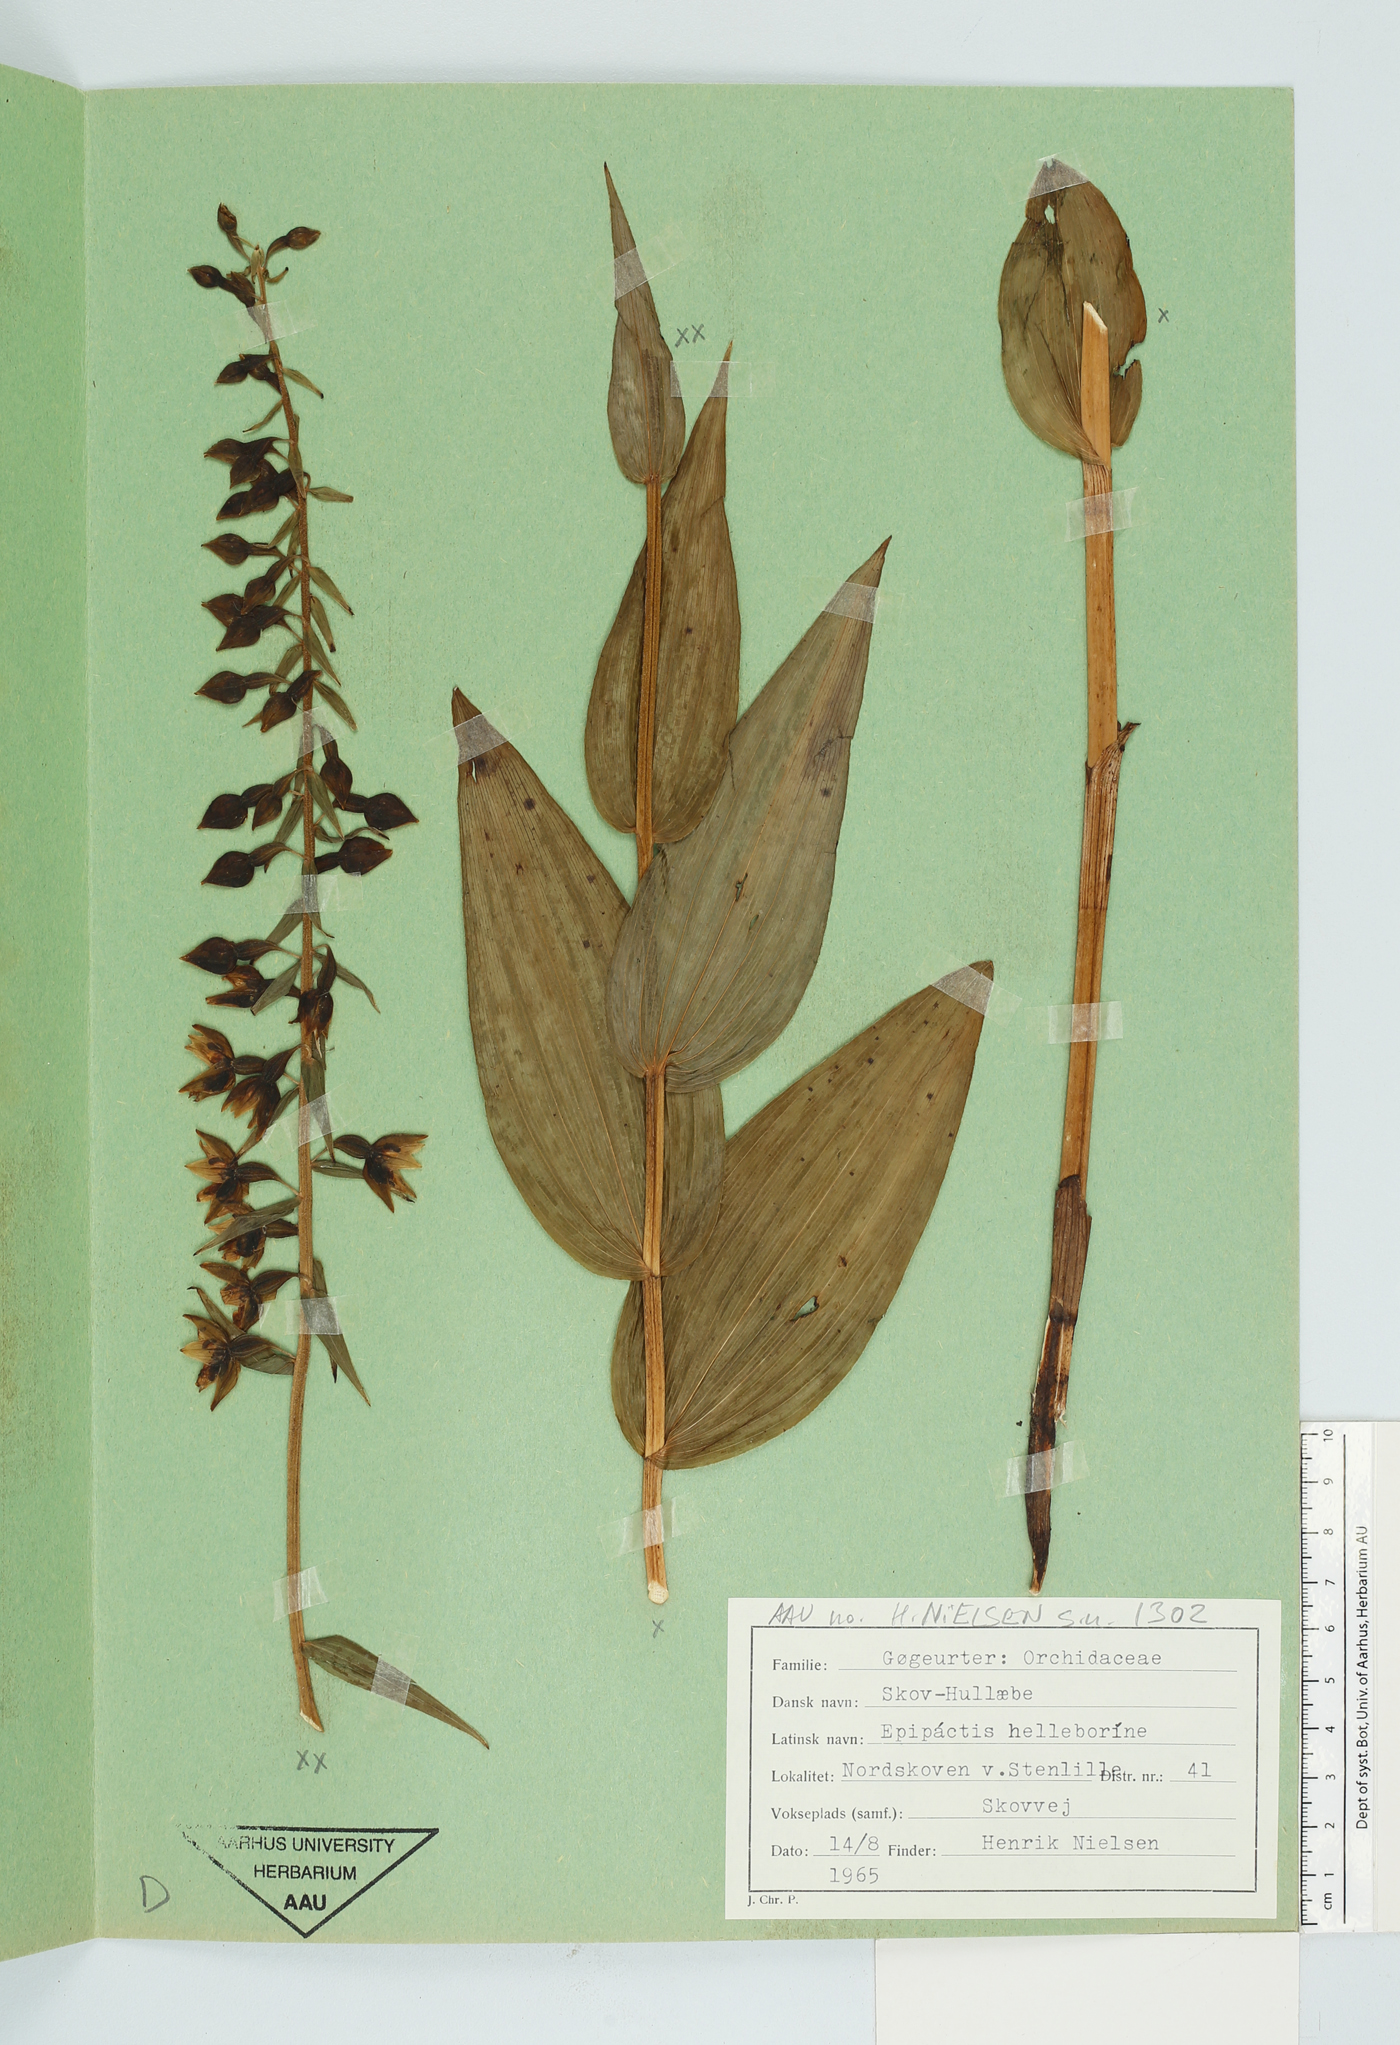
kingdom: Plantae
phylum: Tracheophyta
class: Liliopsida
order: Asparagales
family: Orchidaceae
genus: Epipactis
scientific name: Epipactis helleborine
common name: Broad-leaved helleborine
